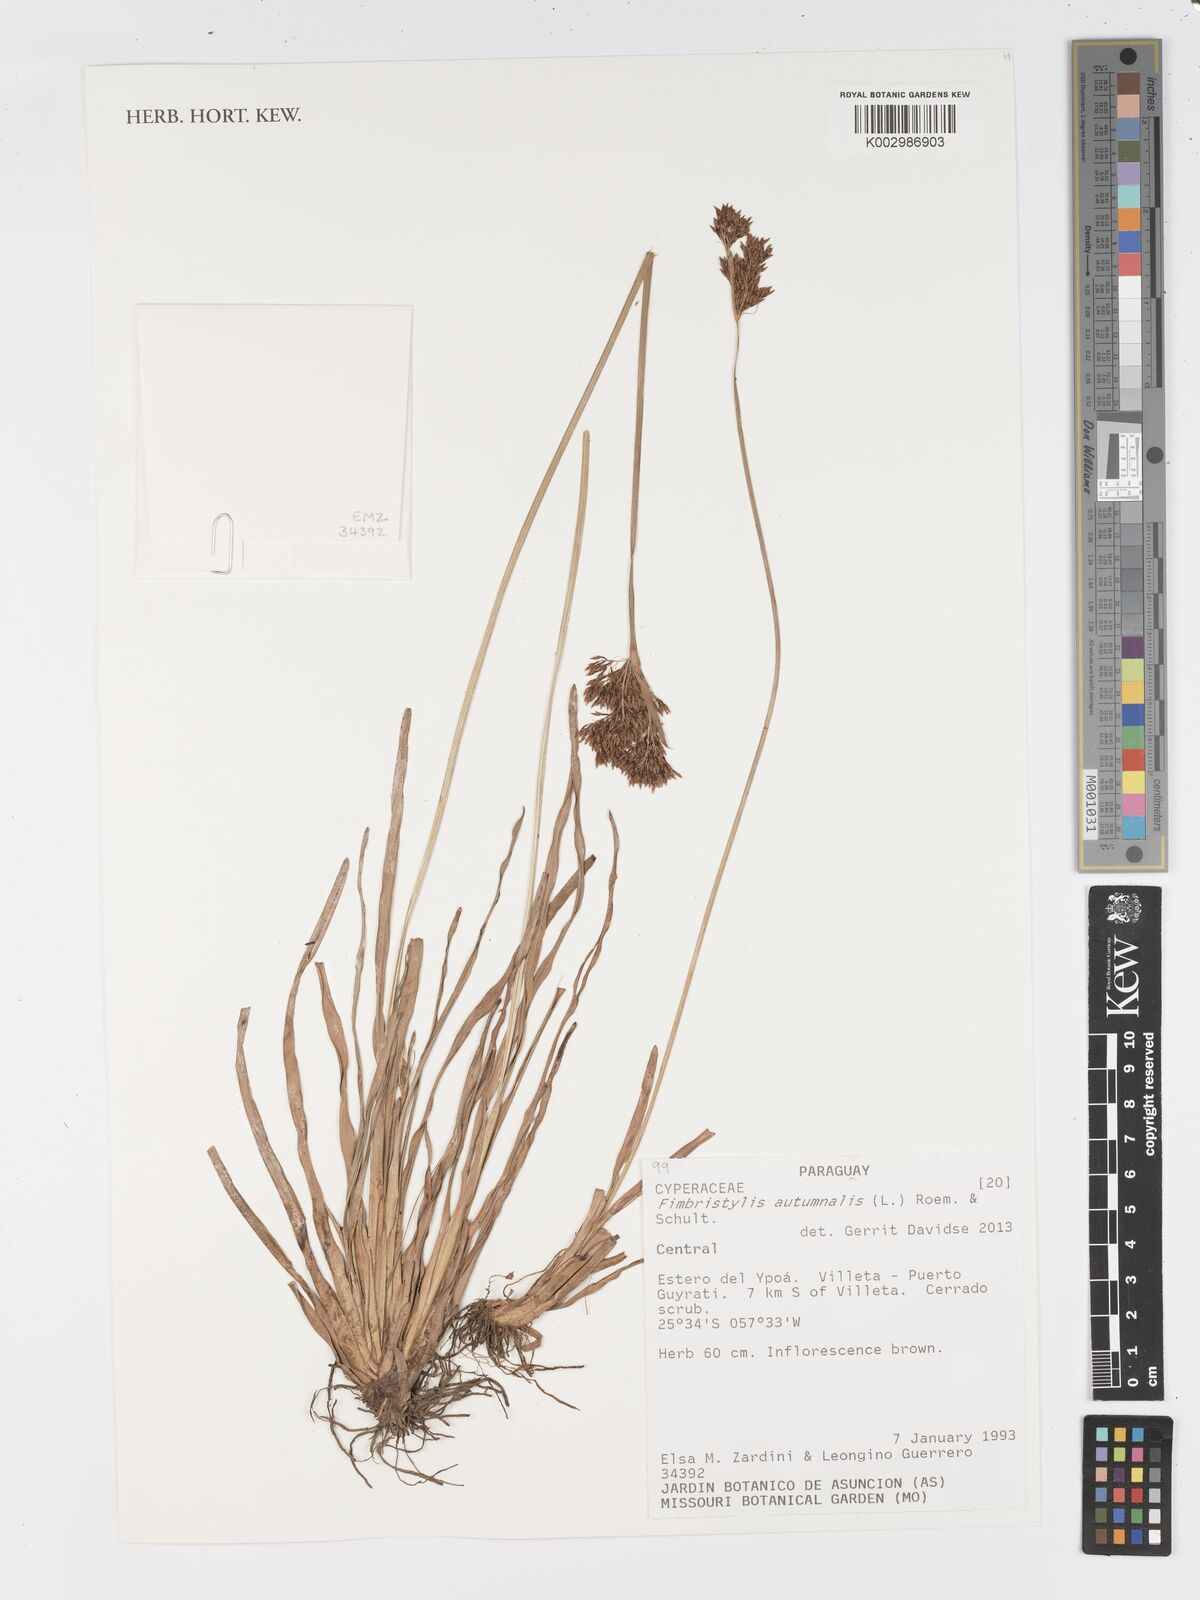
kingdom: Plantae
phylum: Tracheophyta
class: Liliopsida
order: Poales
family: Cyperaceae
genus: Fimbristylis
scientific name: Fimbristylis autumnalis
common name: Slender fimbristylis
